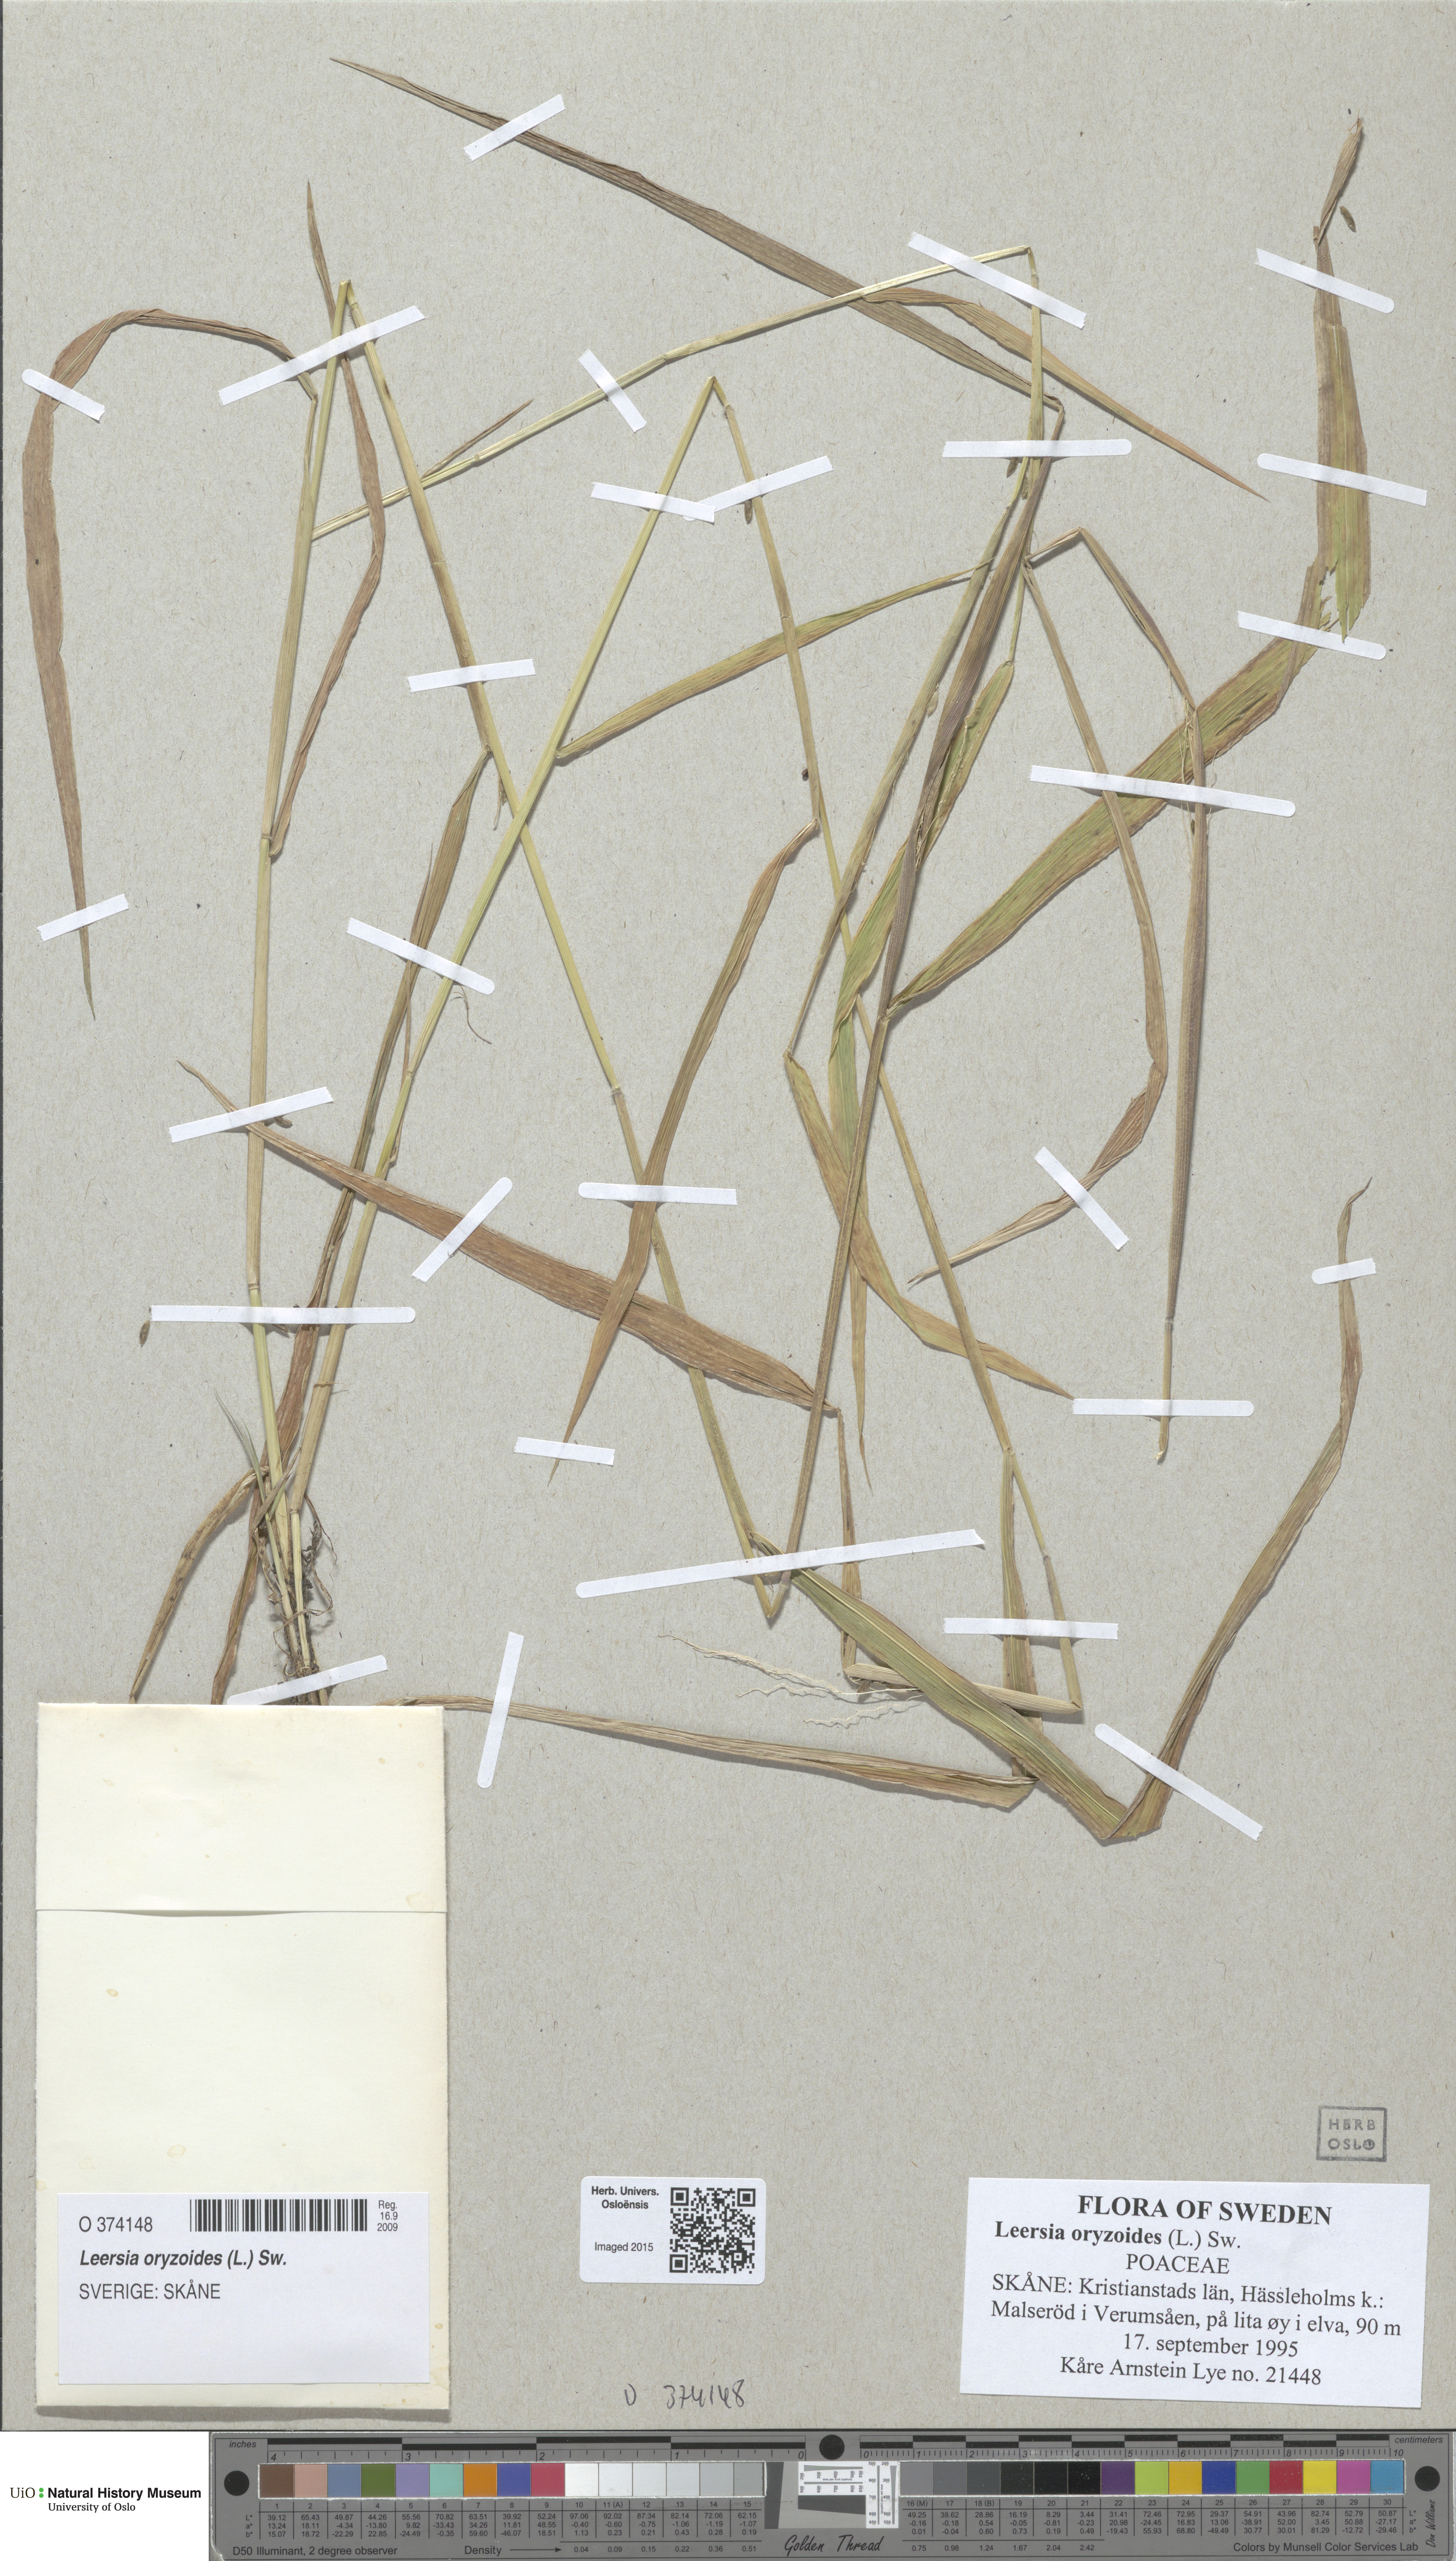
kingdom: Plantae
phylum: Tracheophyta
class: Liliopsida
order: Poales
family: Poaceae
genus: Leersia
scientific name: Leersia oryzoides
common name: Cut-grass
